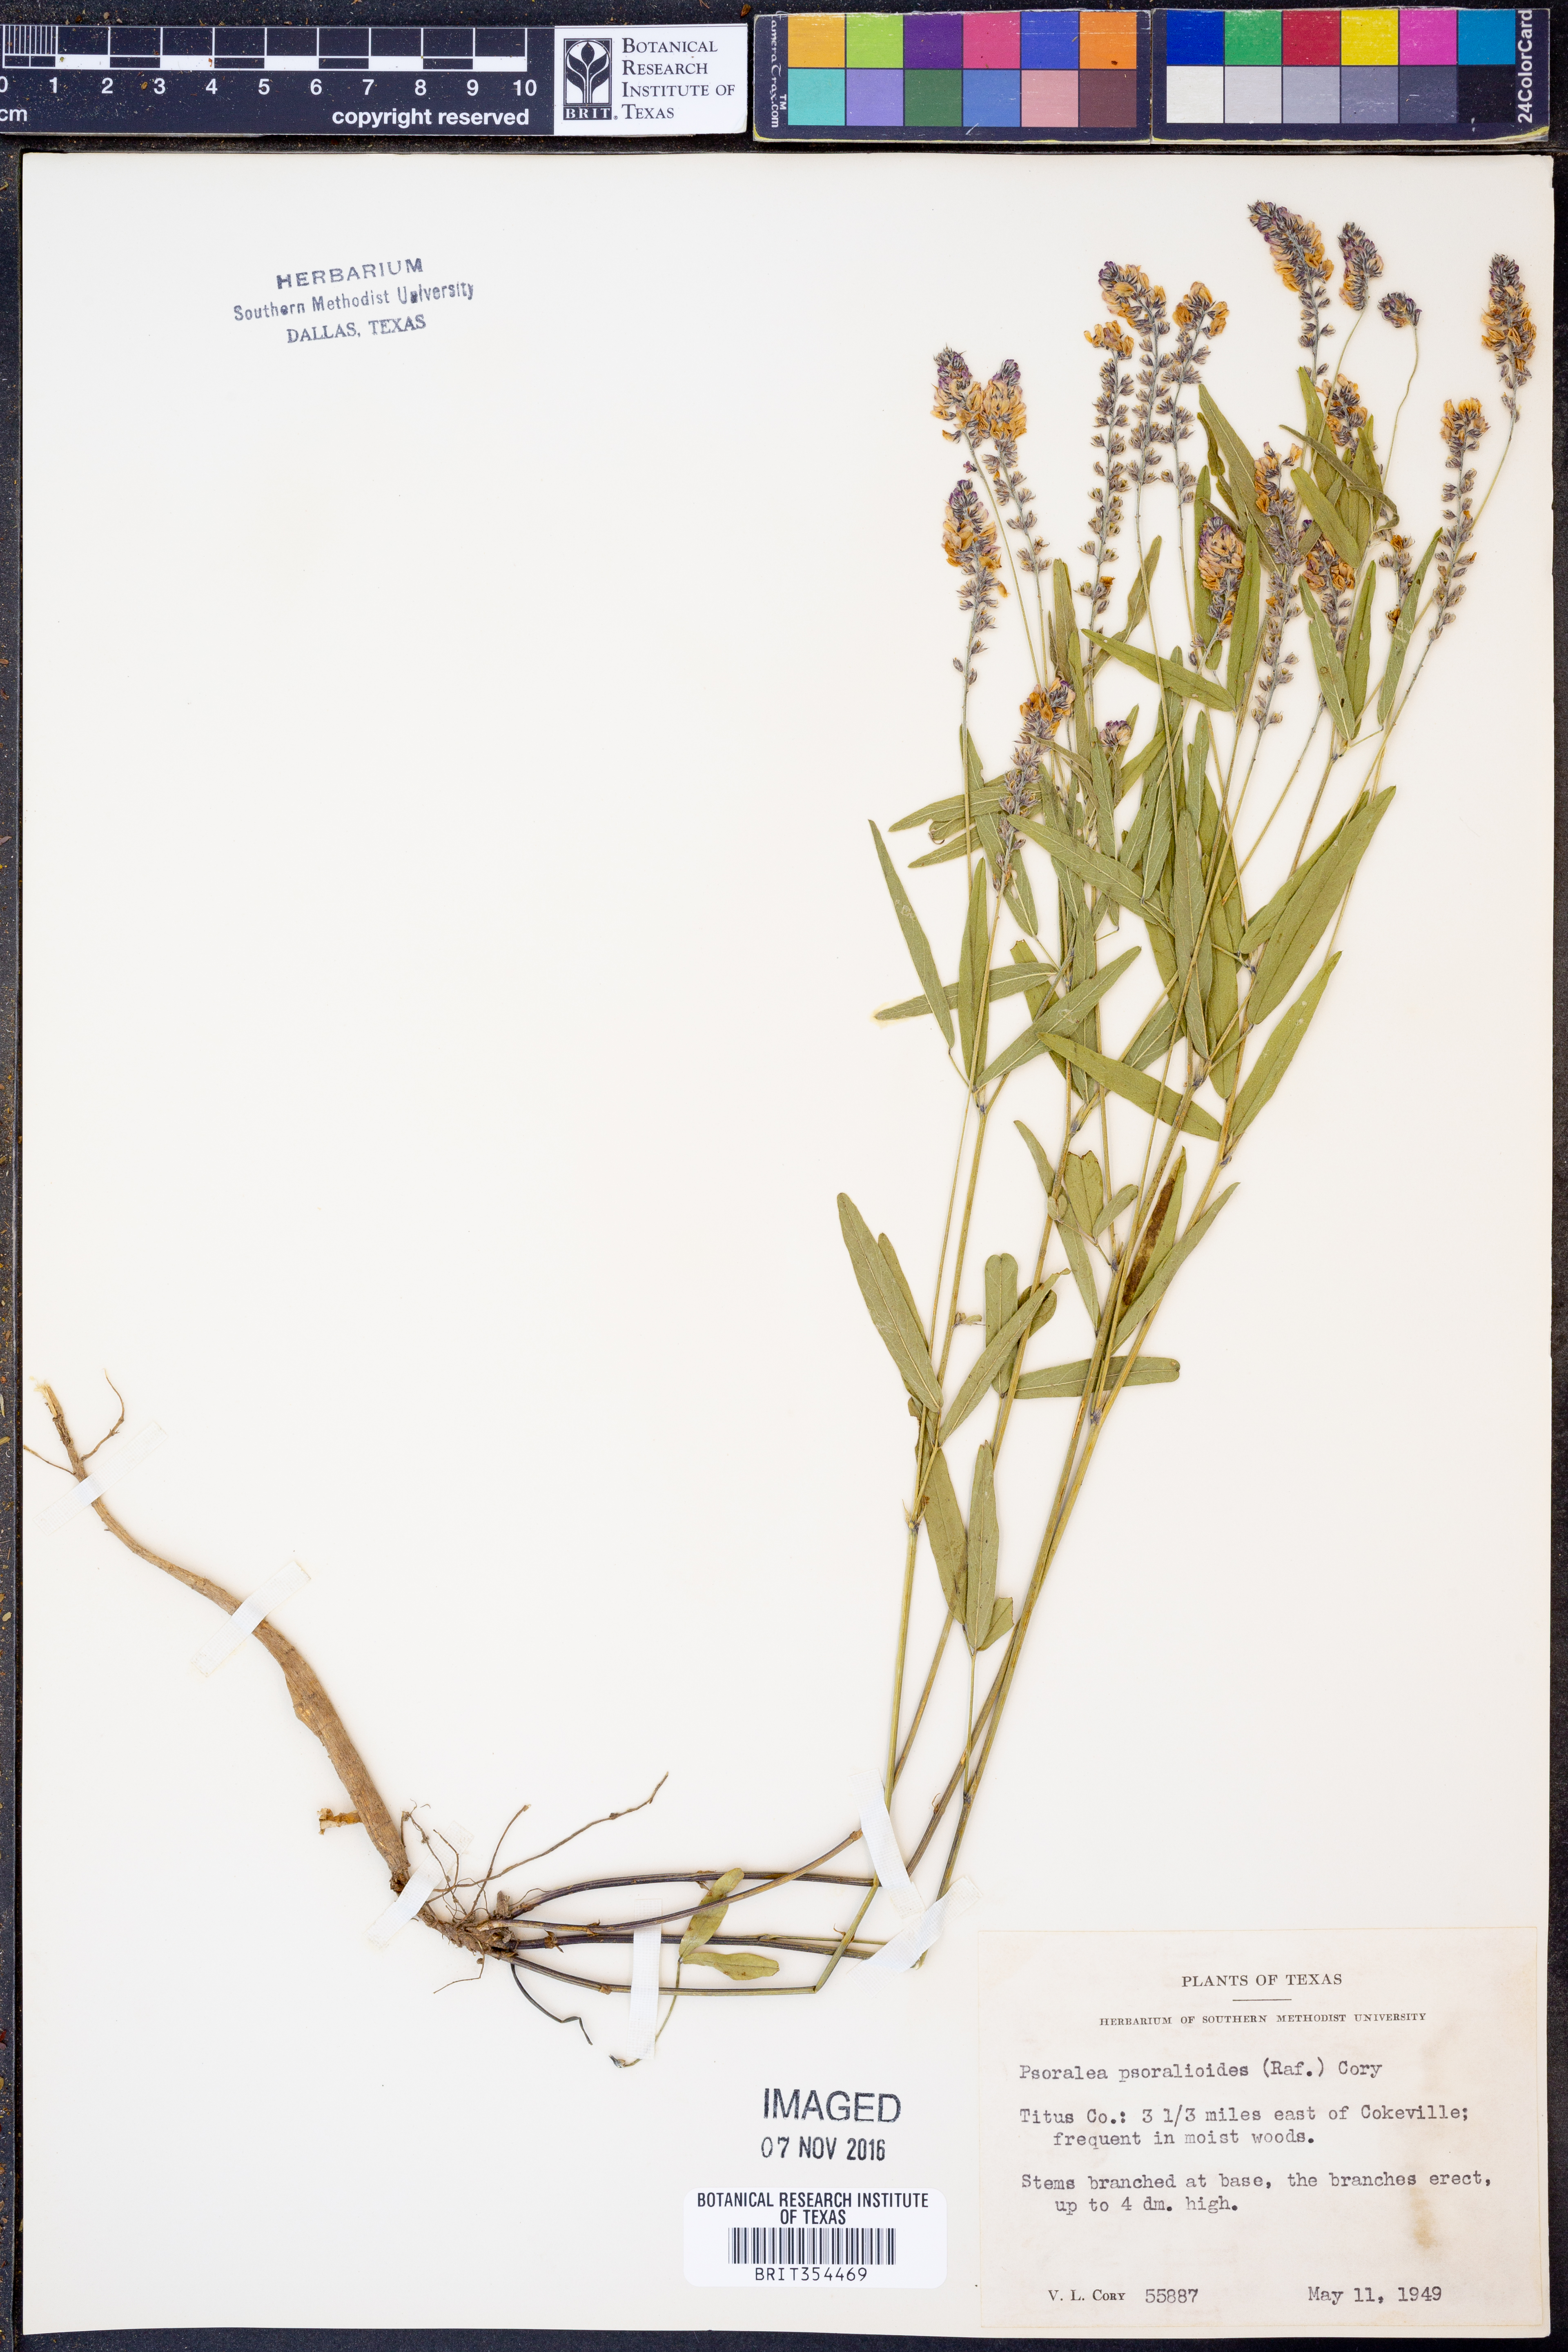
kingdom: Plantae
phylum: Tracheophyta
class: Magnoliopsida
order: Fabales
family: Fabaceae
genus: Orbexilum
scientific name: Orbexilum psoralioides
